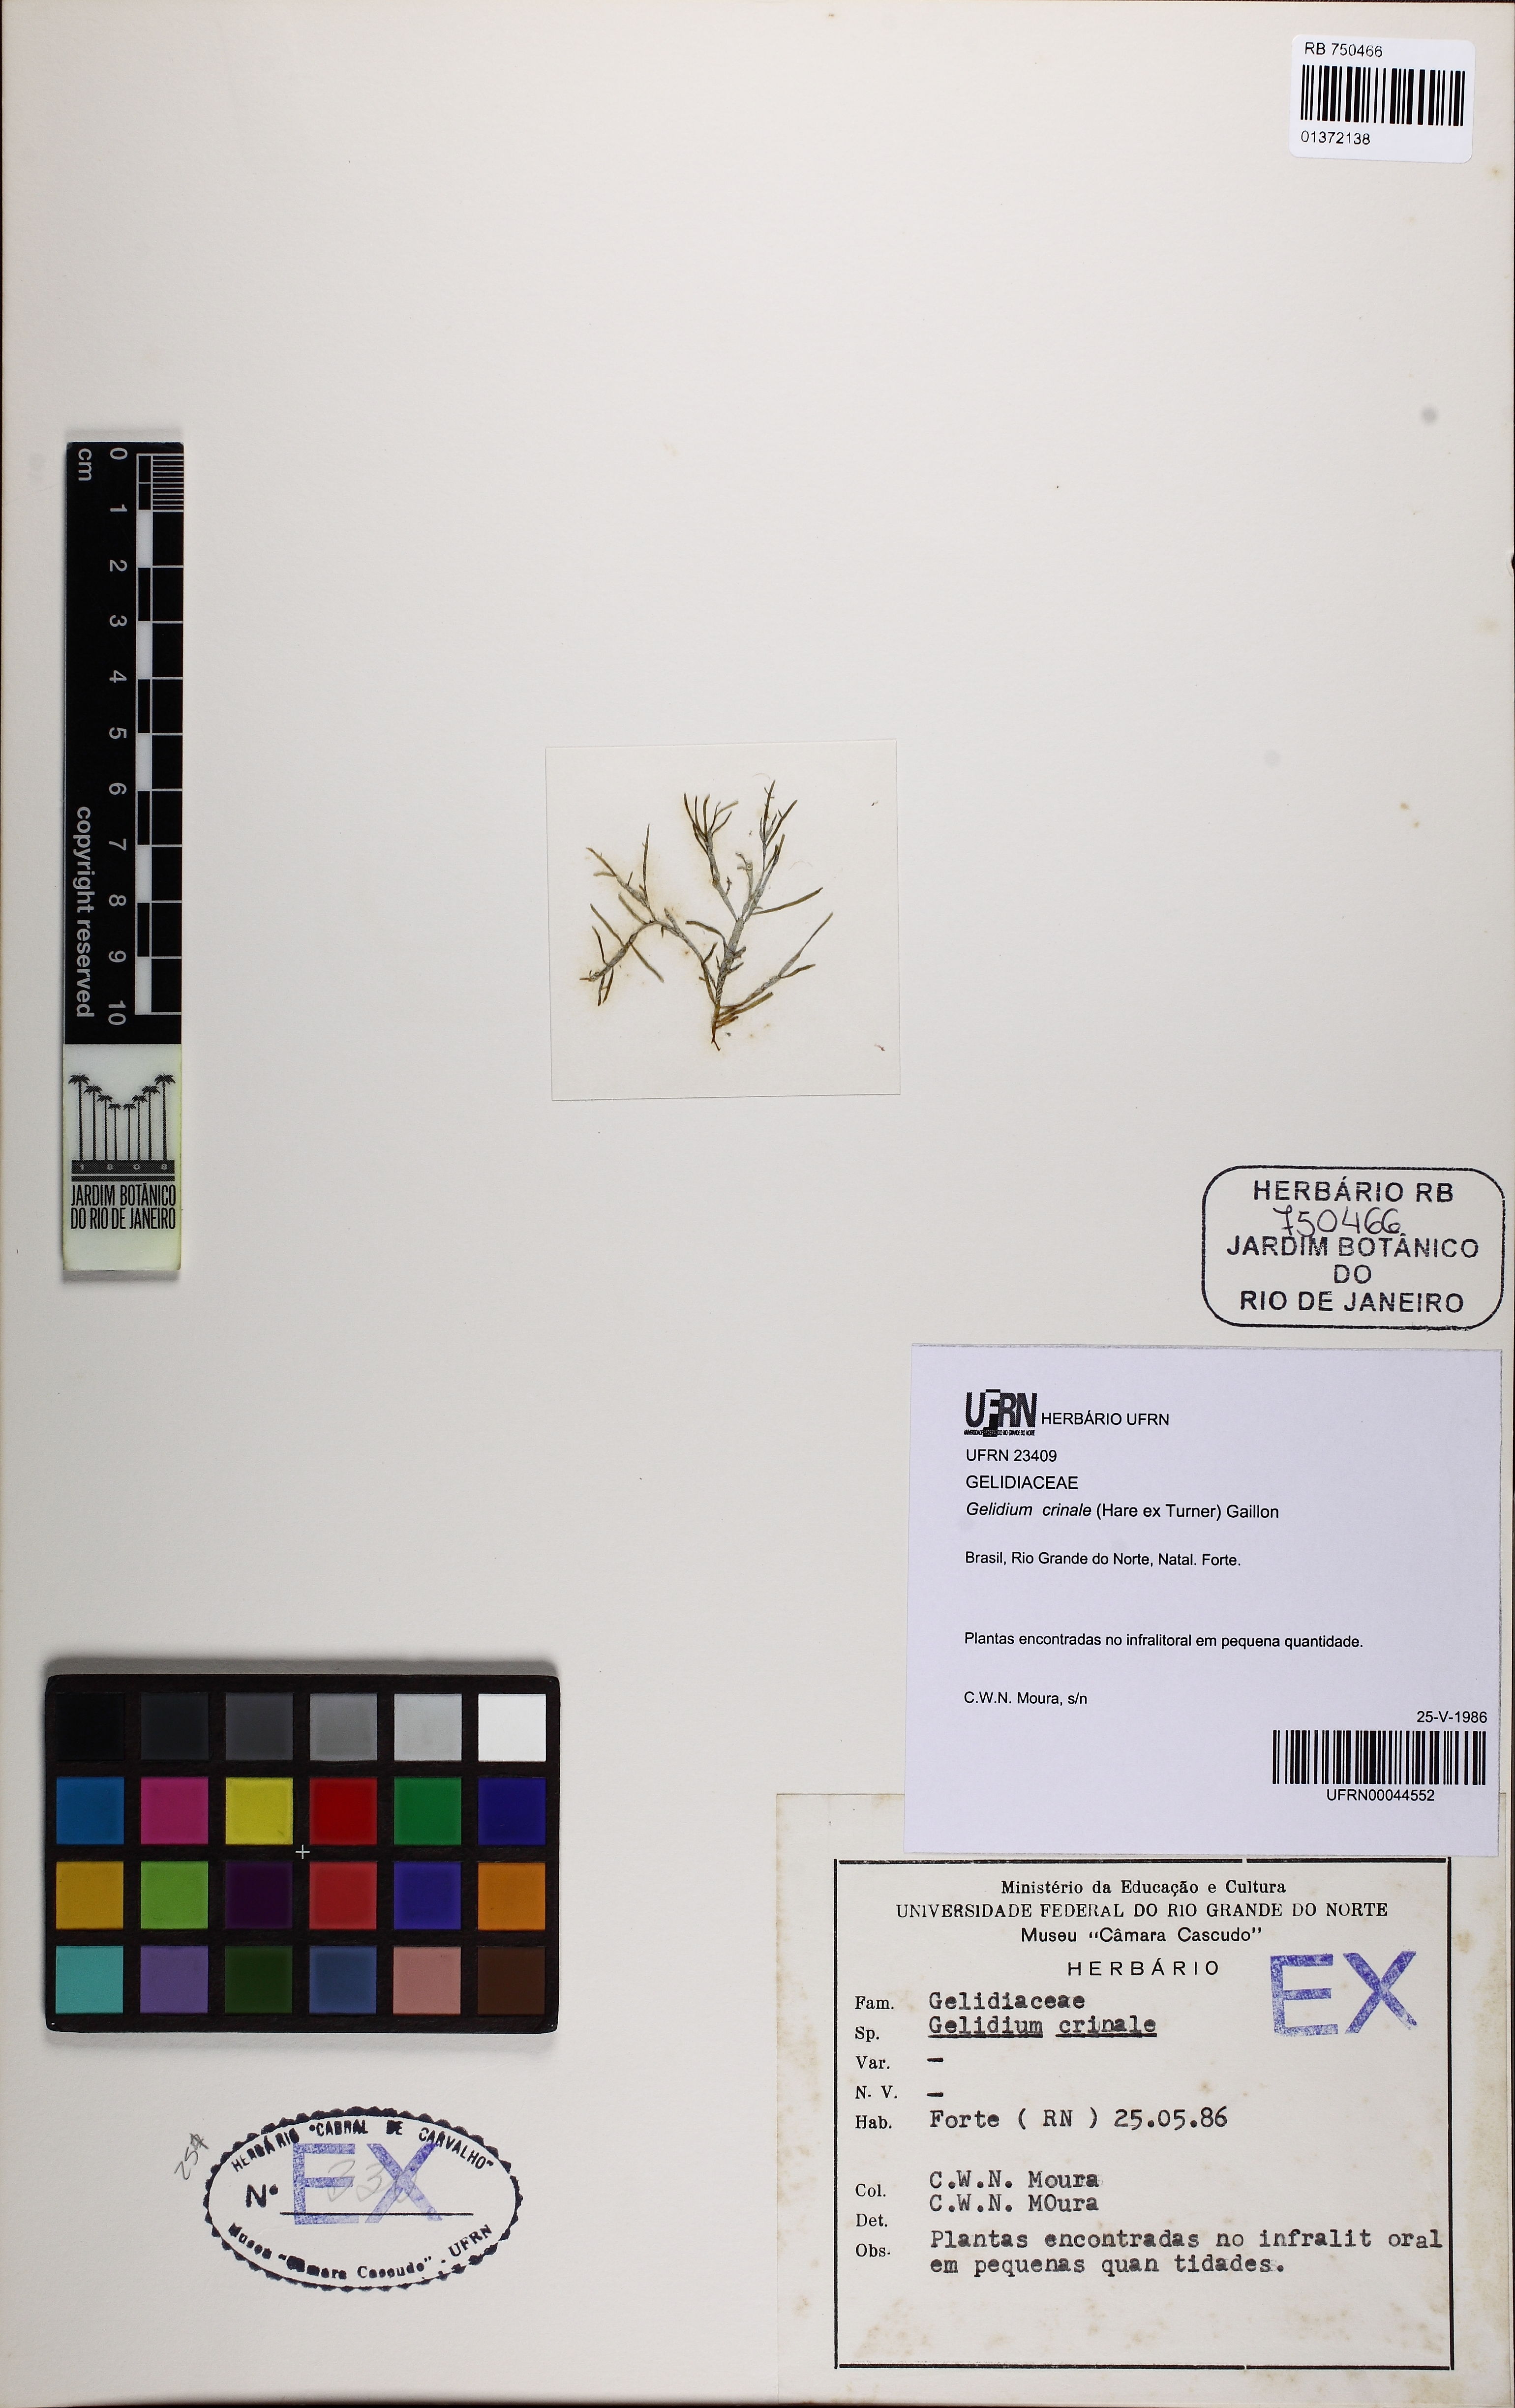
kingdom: Plantae
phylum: Rhodophyta
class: Florideophyceae
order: Gelidiales
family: Gelidiaceae
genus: Gelidium
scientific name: Gelidium crinale
